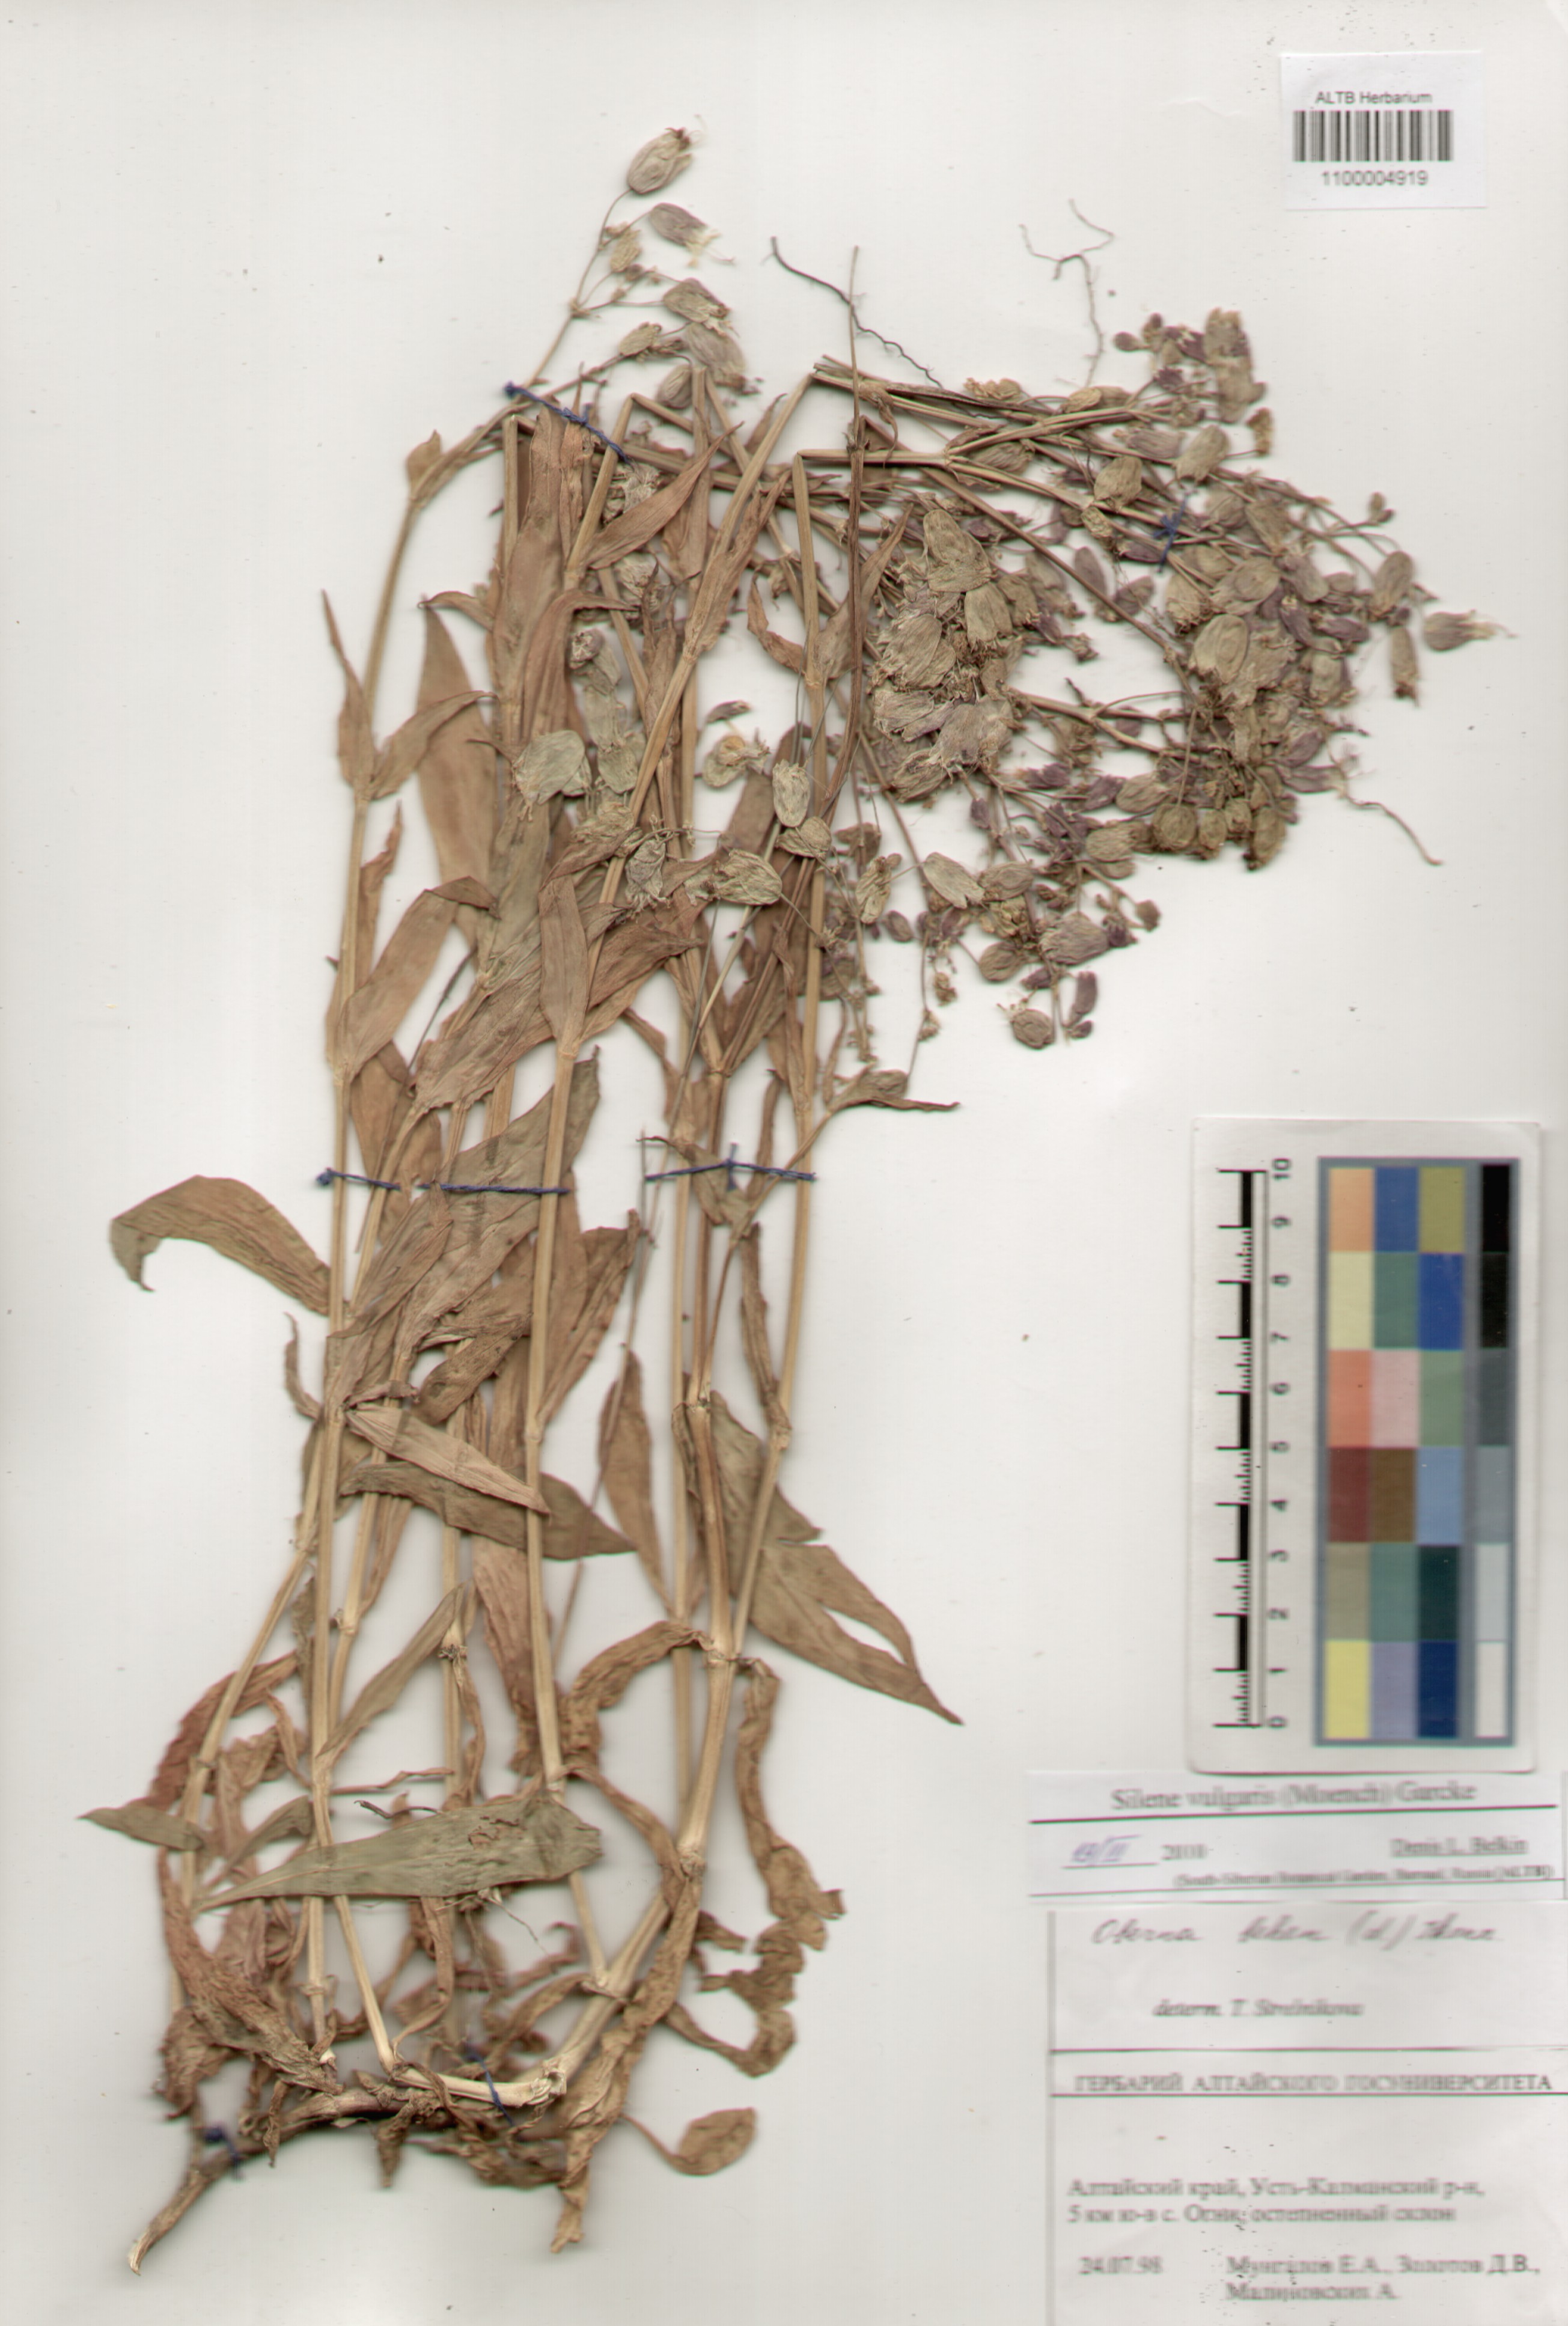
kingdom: Plantae
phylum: Tracheophyta
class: Magnoliopsida
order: Caryophyllales
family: Caryophyllaceae
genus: Silene
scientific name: Silene vulgaris
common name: Bladder campion
